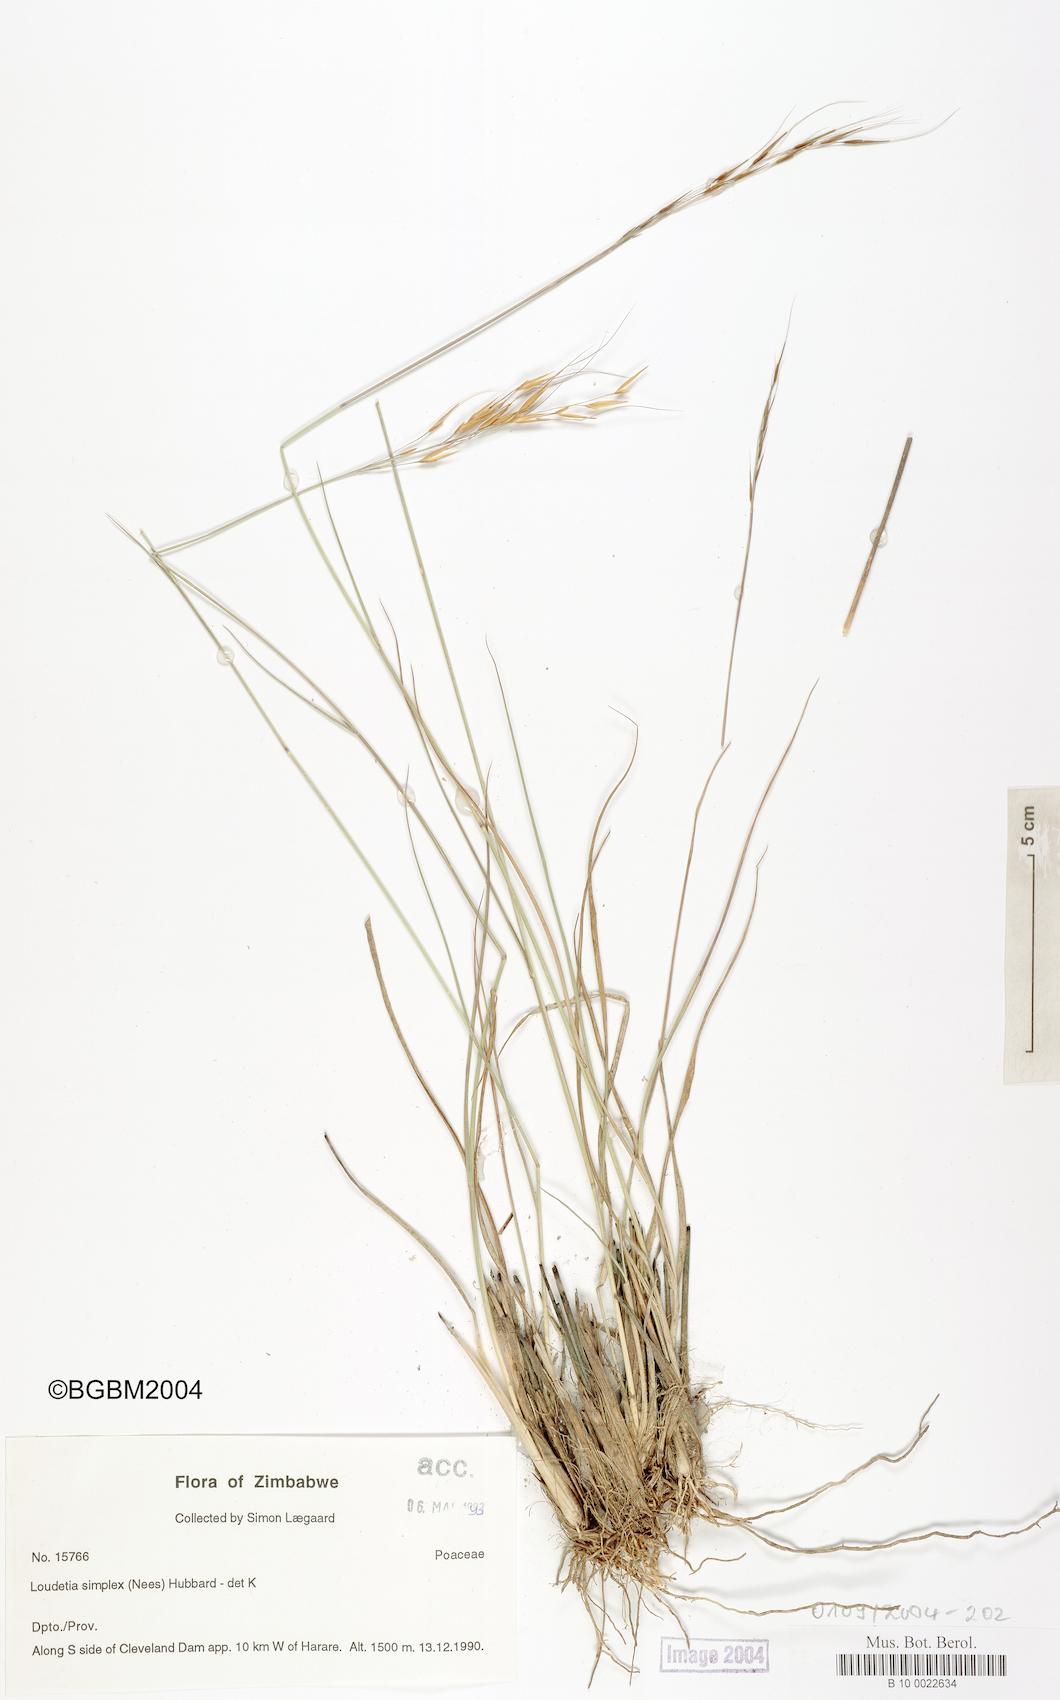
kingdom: Plantae
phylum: Tracheophyta
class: Liliopsida
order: Poales
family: Poaceae
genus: Loudetia
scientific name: Loudetia simplex
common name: Common russet grass
